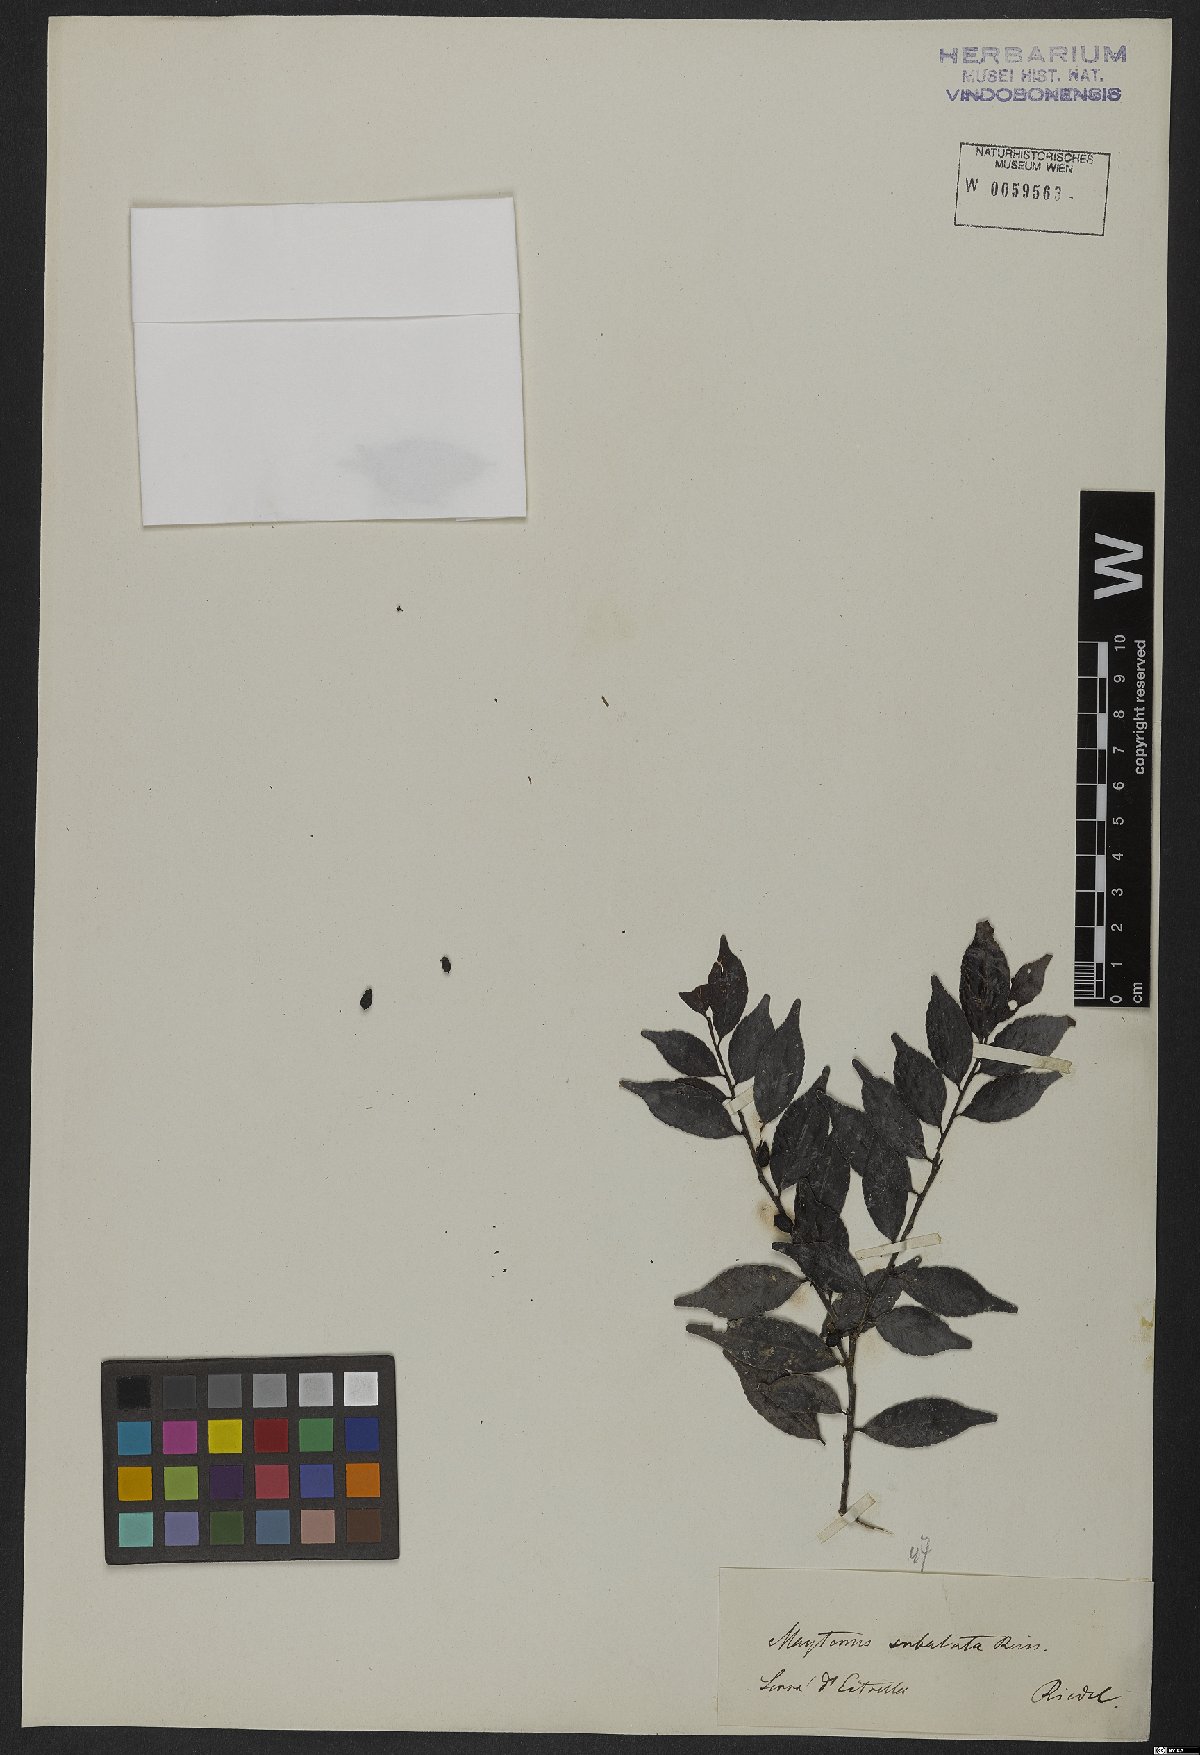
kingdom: Plantae
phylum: Tracheophyta
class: Magnoliopsida
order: Celastrales
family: Celastraceae
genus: Monteverdia
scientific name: Monteverdia subalata
